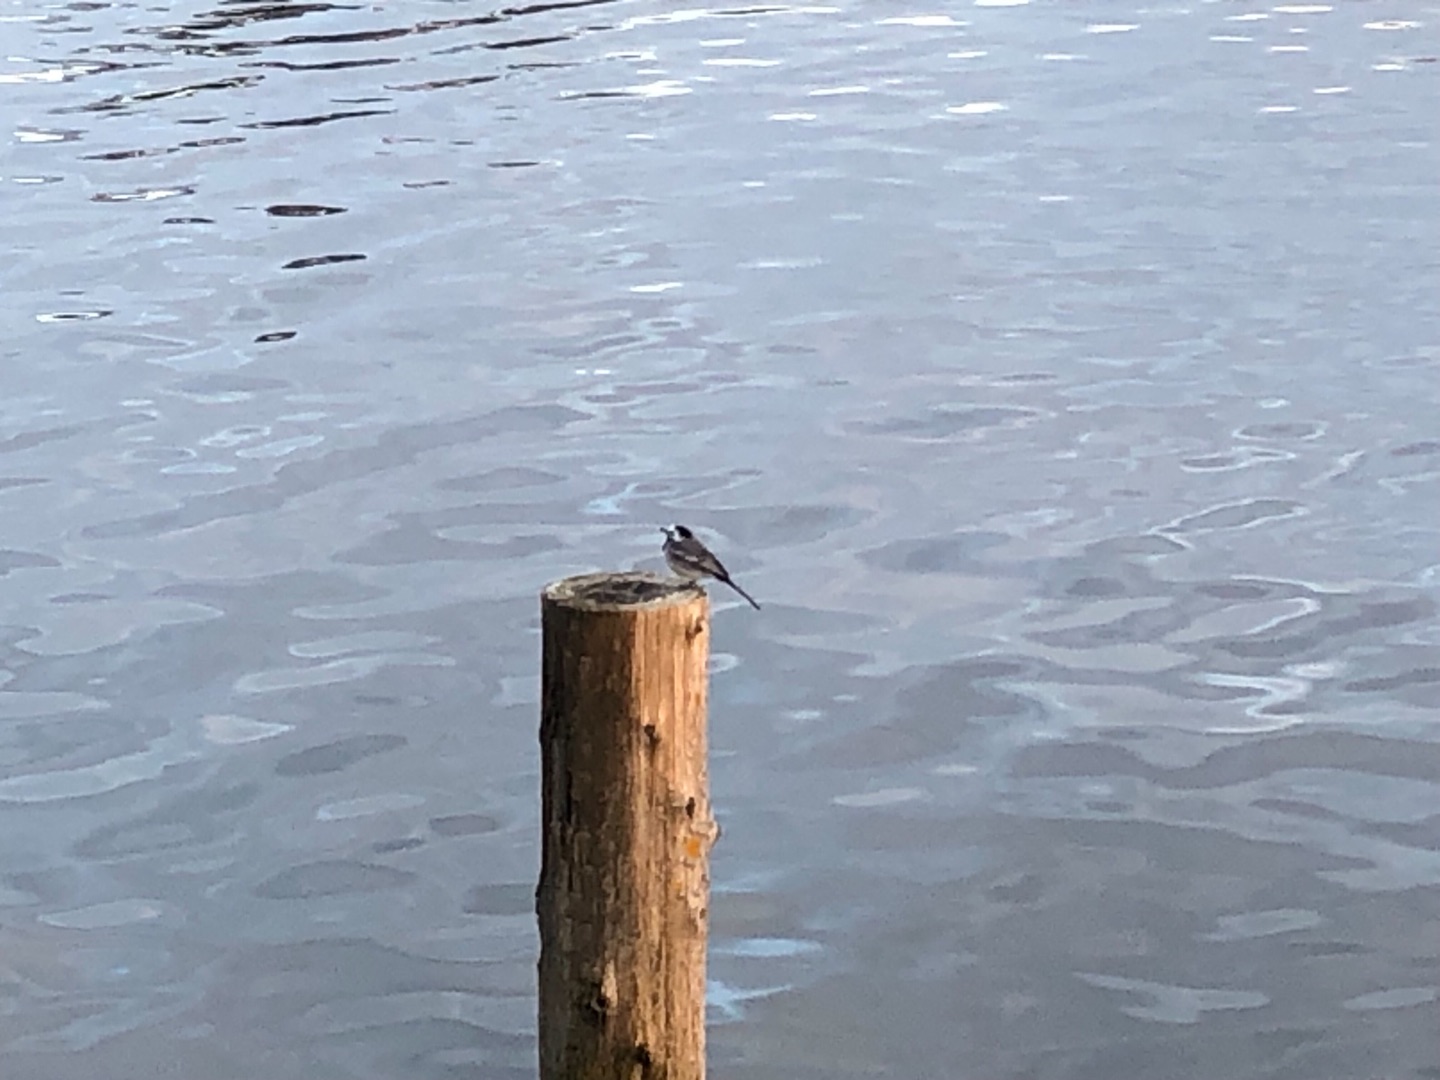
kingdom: Animalia
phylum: Chordata
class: Aves
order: Passeriformes
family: Motacillidae
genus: Motacilla
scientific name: Motacilla alba
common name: Hvid vipstjert
